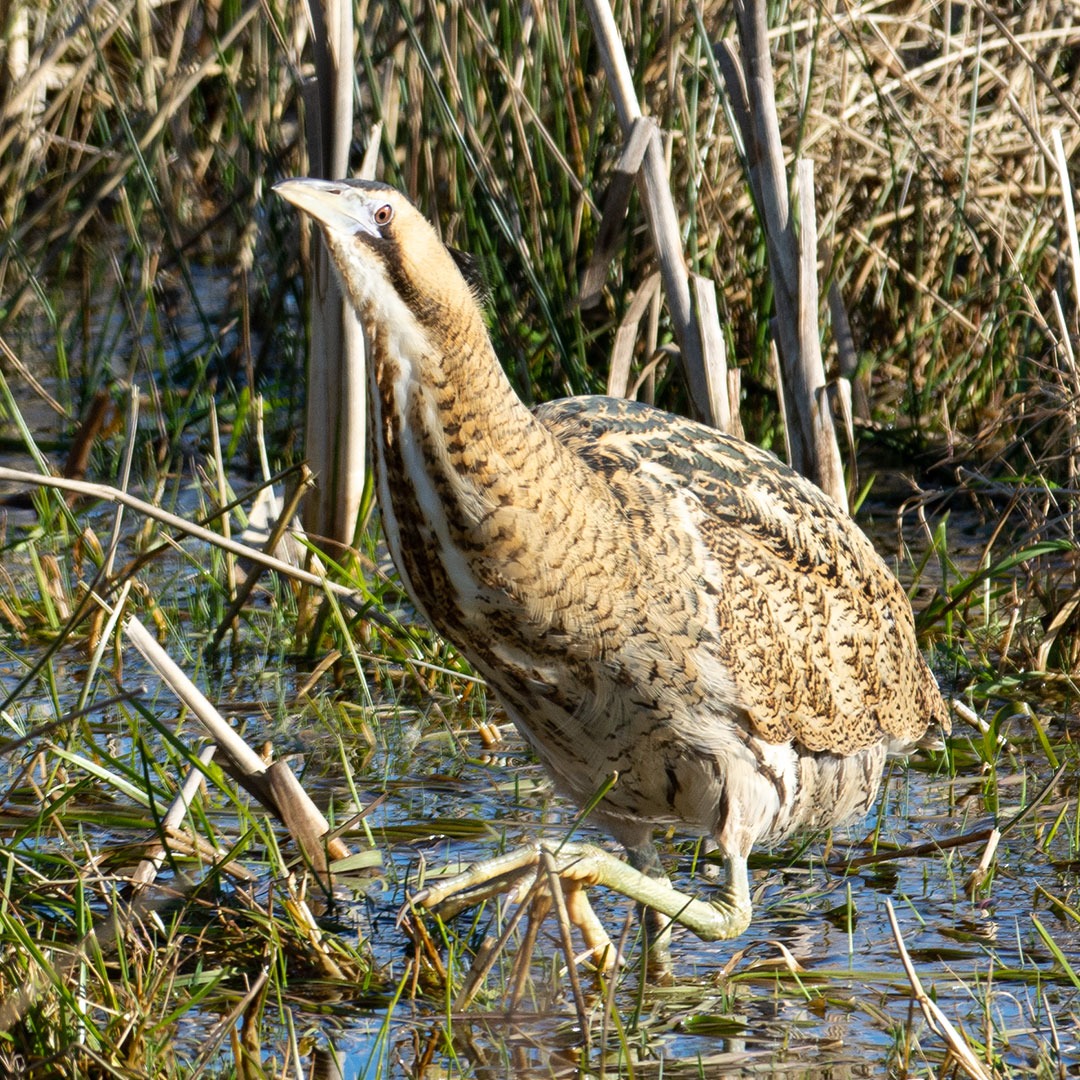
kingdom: Animalia
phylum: Chordata
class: Aves
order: Pelecaniformes
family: Ardeidae
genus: Botaurus
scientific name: Botaurus stellaris
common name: Rørdrum
